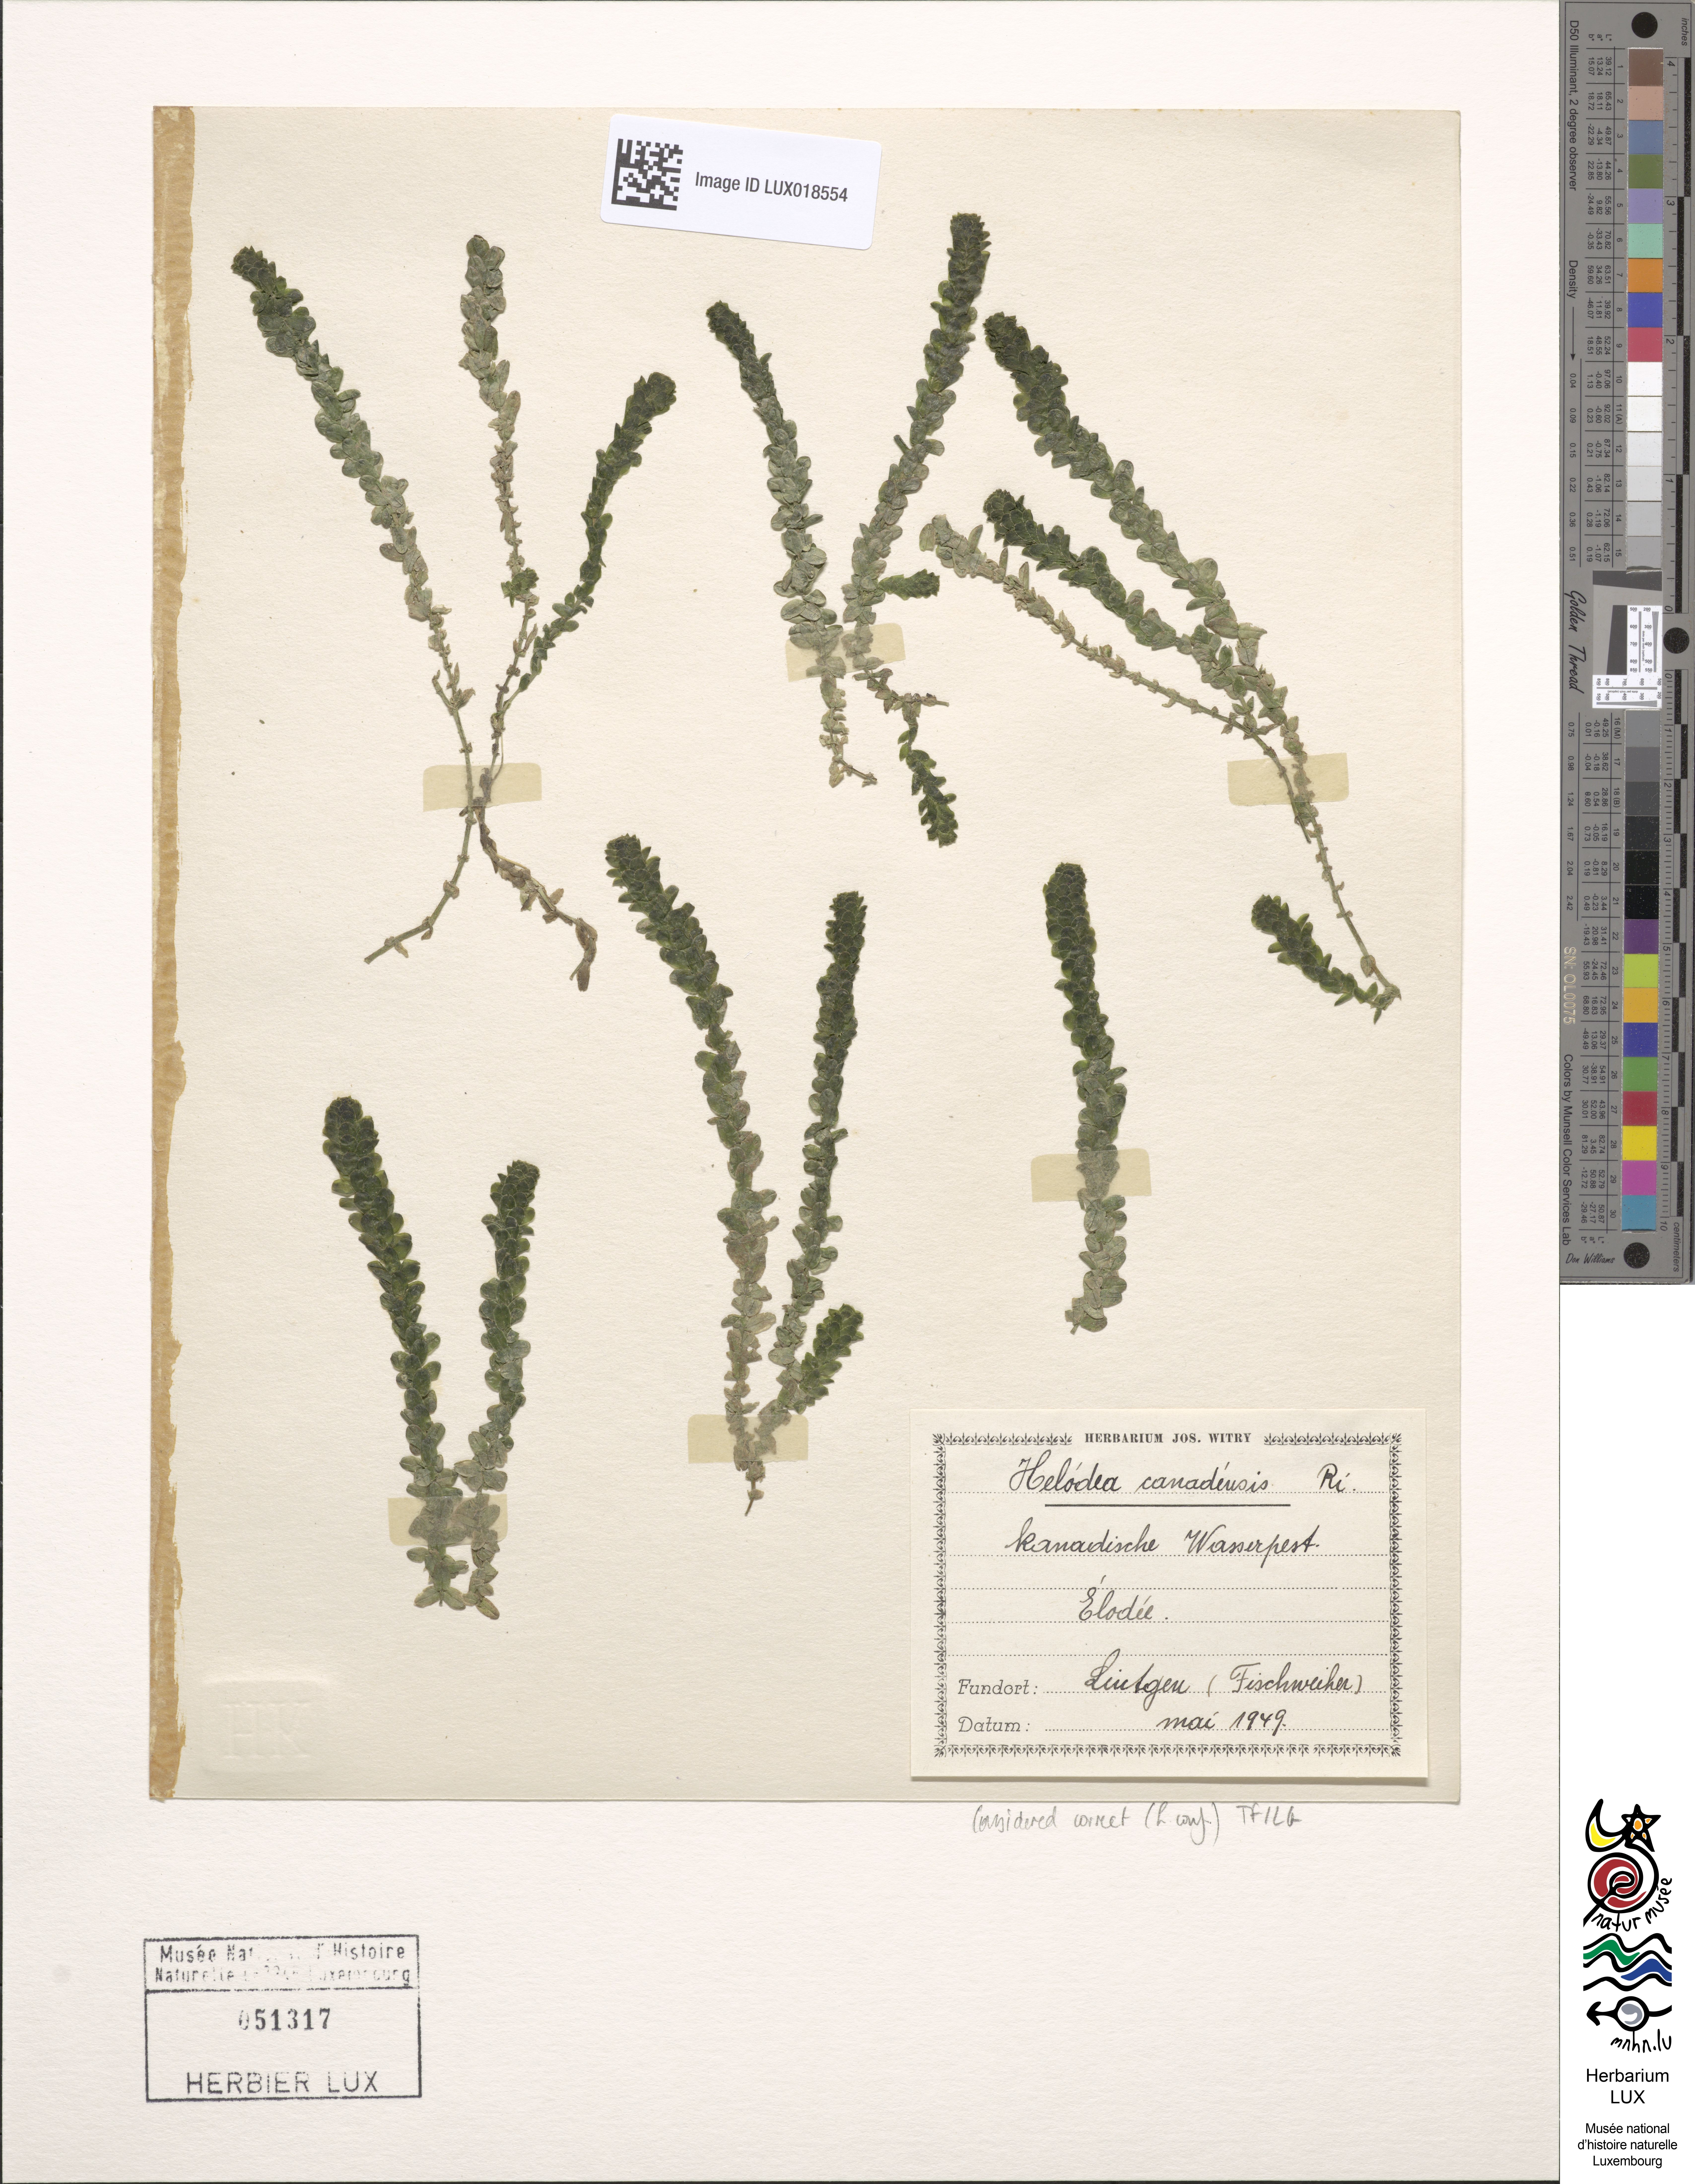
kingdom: Plantae
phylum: Tracheophyta
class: Liliopsida
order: Alismatales
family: Hydrocharitaceae
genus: Elodea
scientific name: Elodea canadensis
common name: Canadian waterweed
